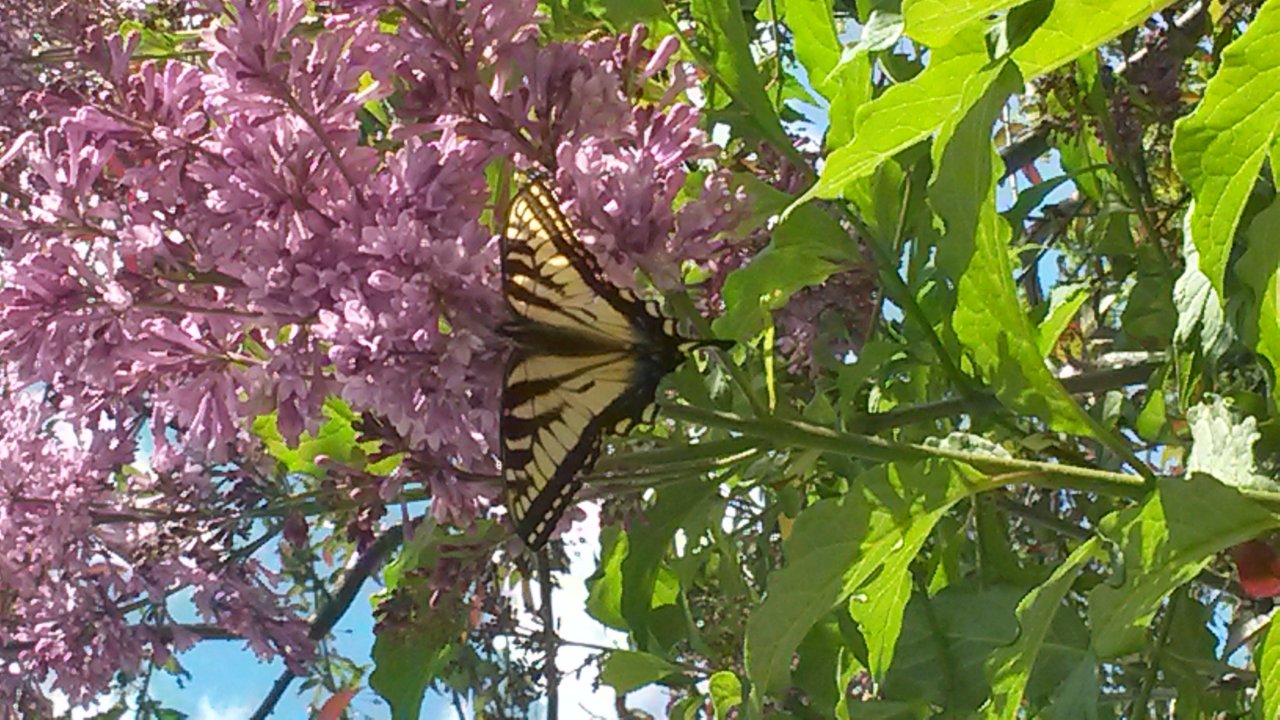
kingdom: Animalia
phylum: Arthropoda
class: Insecta
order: Lepidoptera
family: Papilionidae
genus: Pterourus
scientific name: Pterourus canadensis
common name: Canadian Tiger Swallowtail
